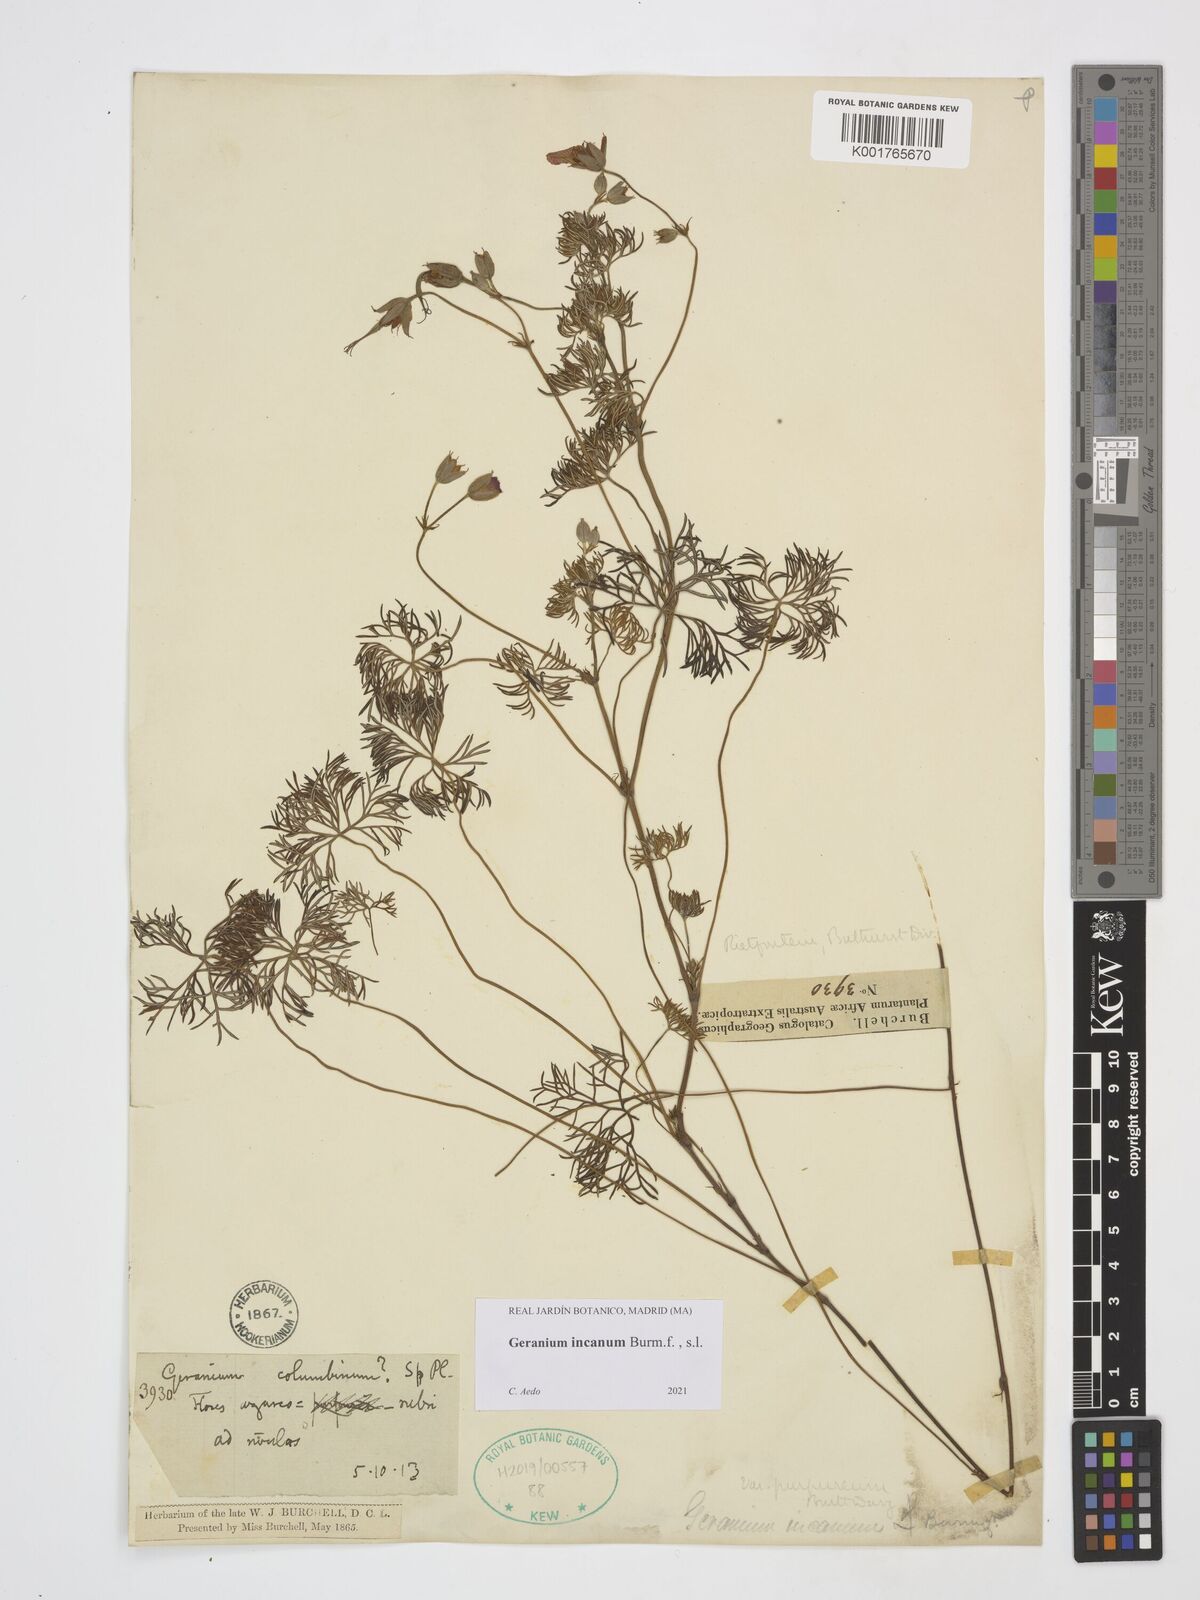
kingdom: Plantae
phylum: Tracheophyta
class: Magnoliopsida
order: Geraniales
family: Geraniaceae
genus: Geranium
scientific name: Geranium incanum
